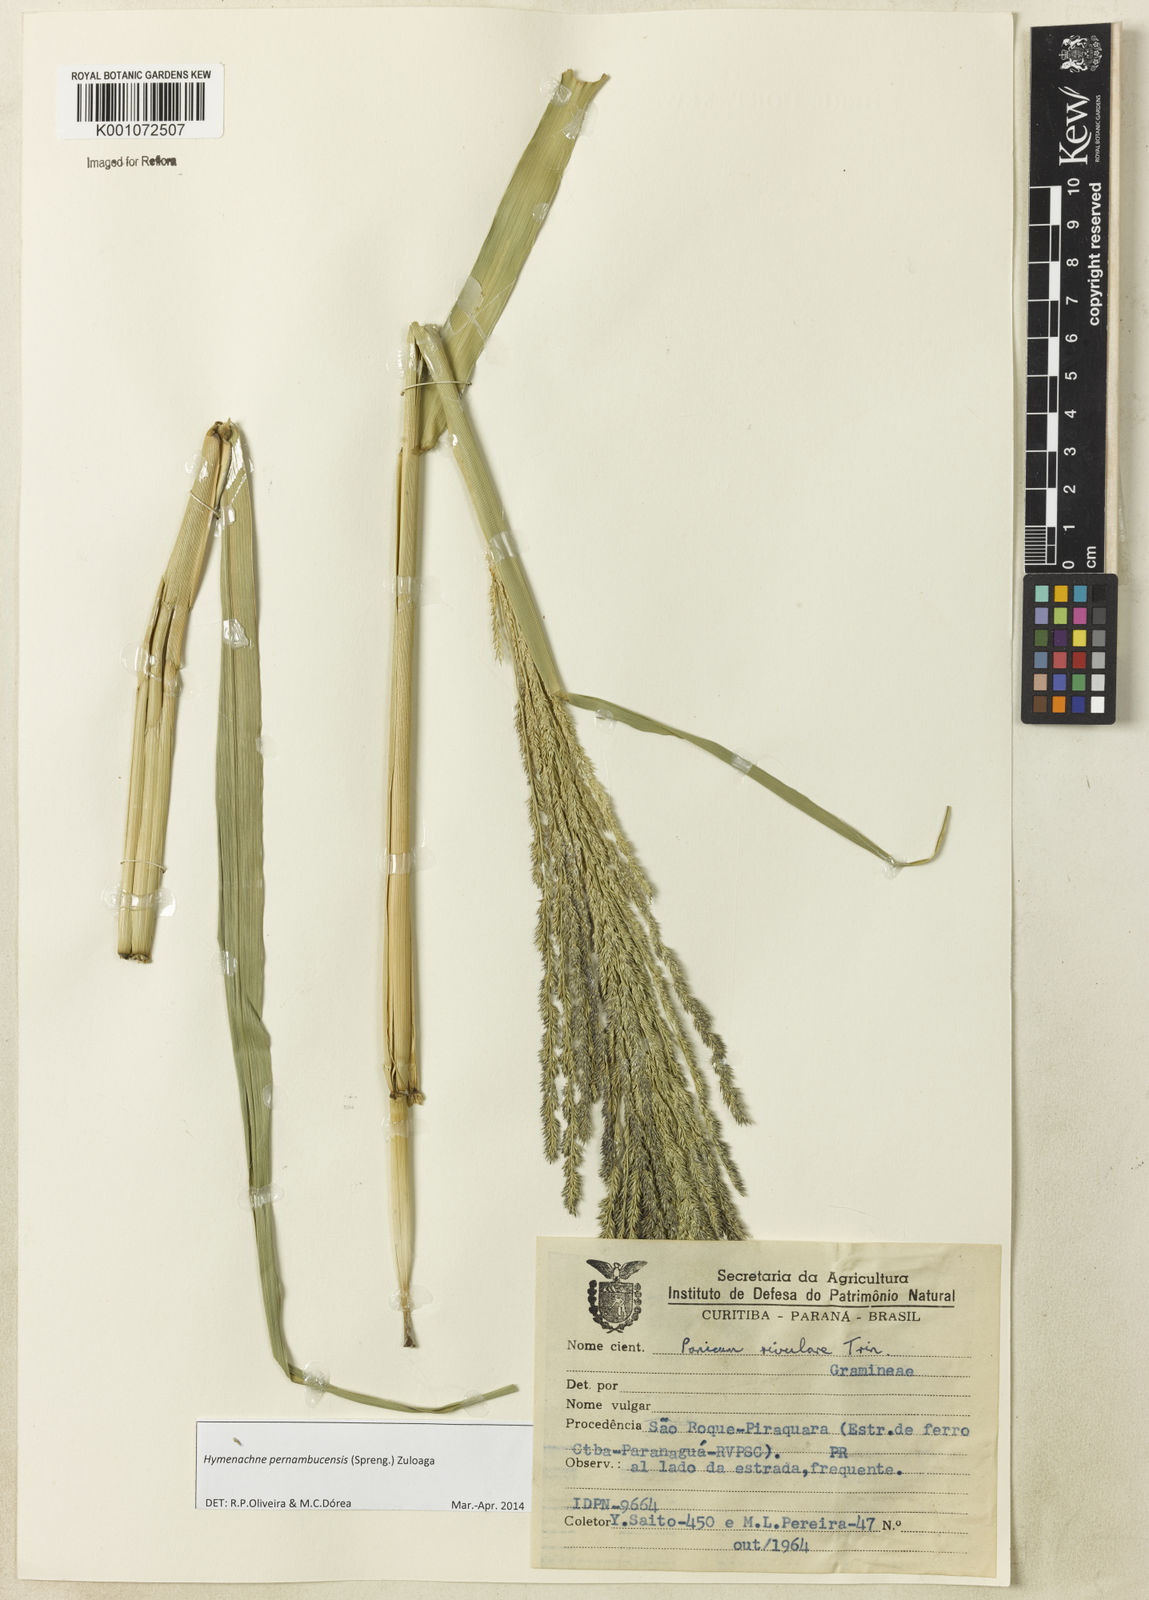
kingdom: Plantae
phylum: Tracheophyta
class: Liliopsida
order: Poales
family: Poaceae
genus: Hymenachne
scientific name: Hymenachne pernambucensis
